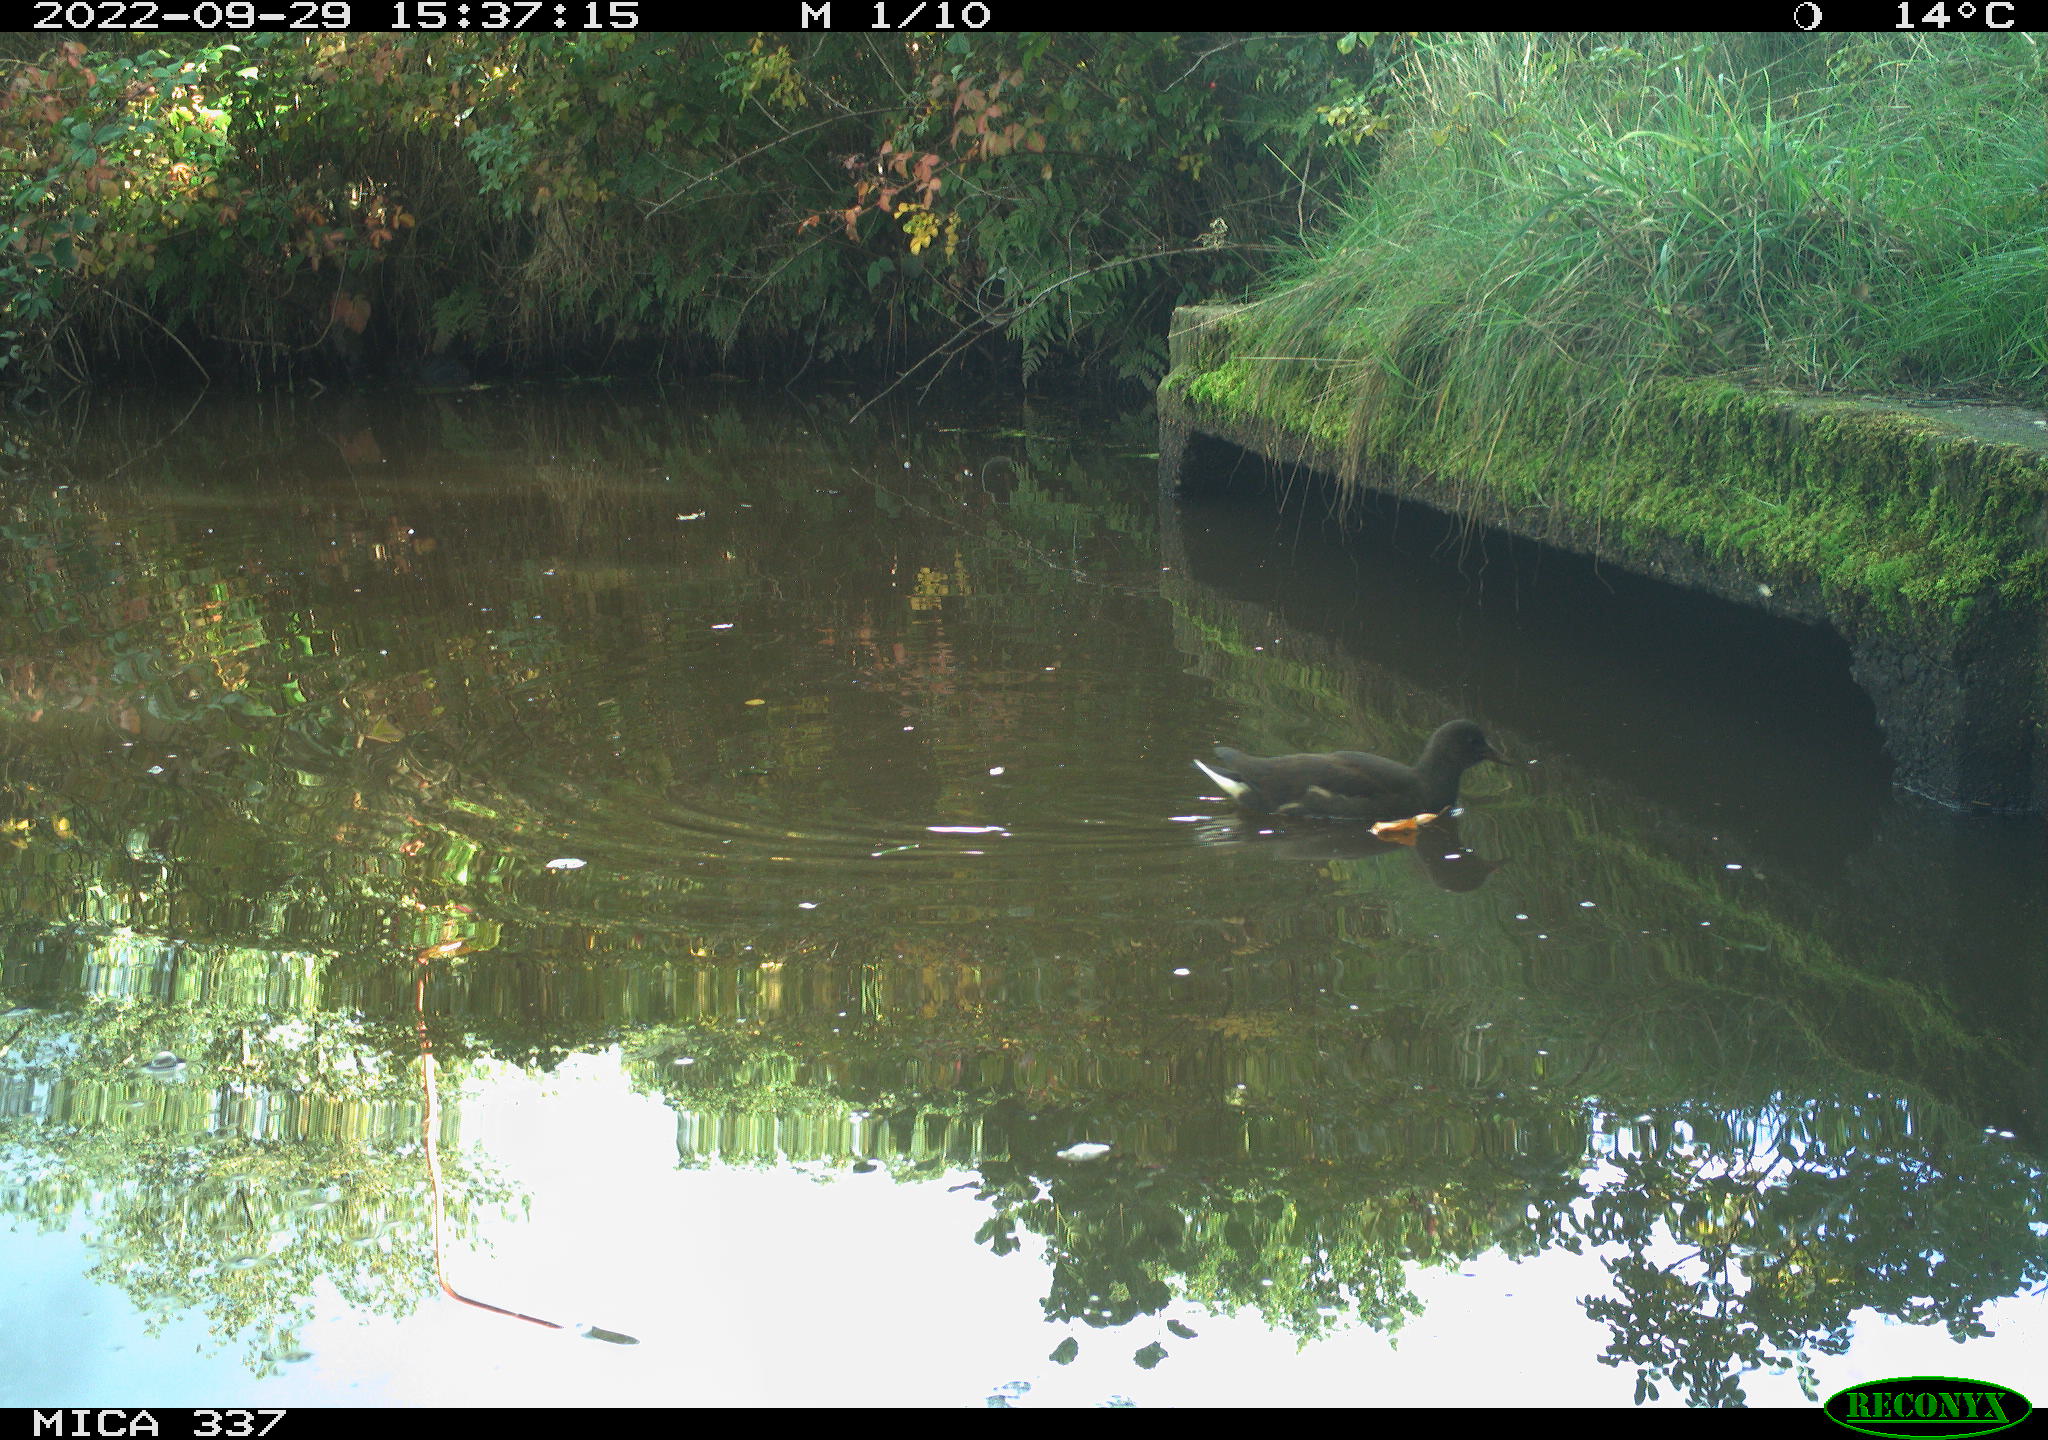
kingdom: Animalia
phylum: Chordata
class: Aves
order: Gruiformes
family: Rallidae
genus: Gallinula
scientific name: Gallinula chloropus
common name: Common moorhen
